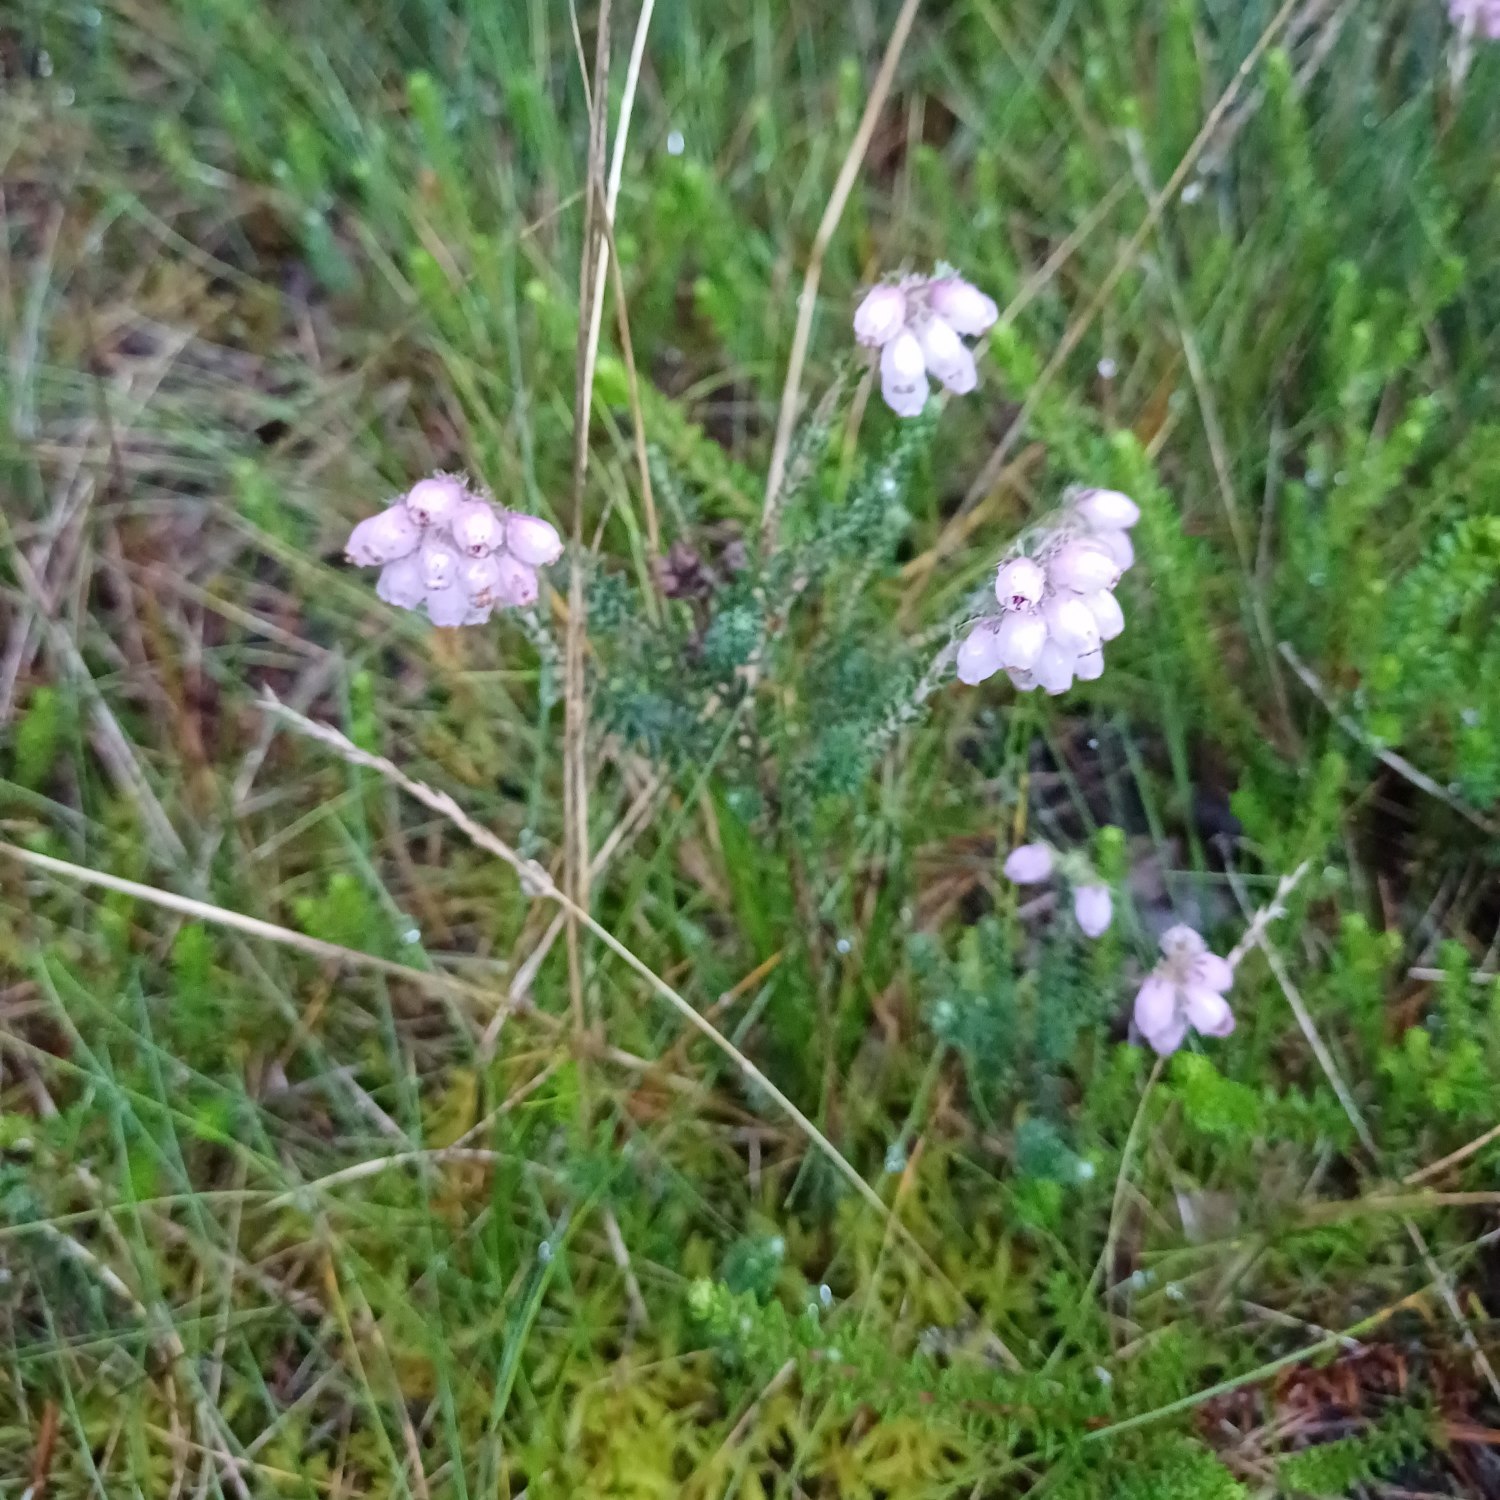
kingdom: Plantae
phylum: Tracheophyta
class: Magnoliopsida
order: Ericales
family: Ericaceae
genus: Erica
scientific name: Erica tetralix
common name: Klokkelyng
